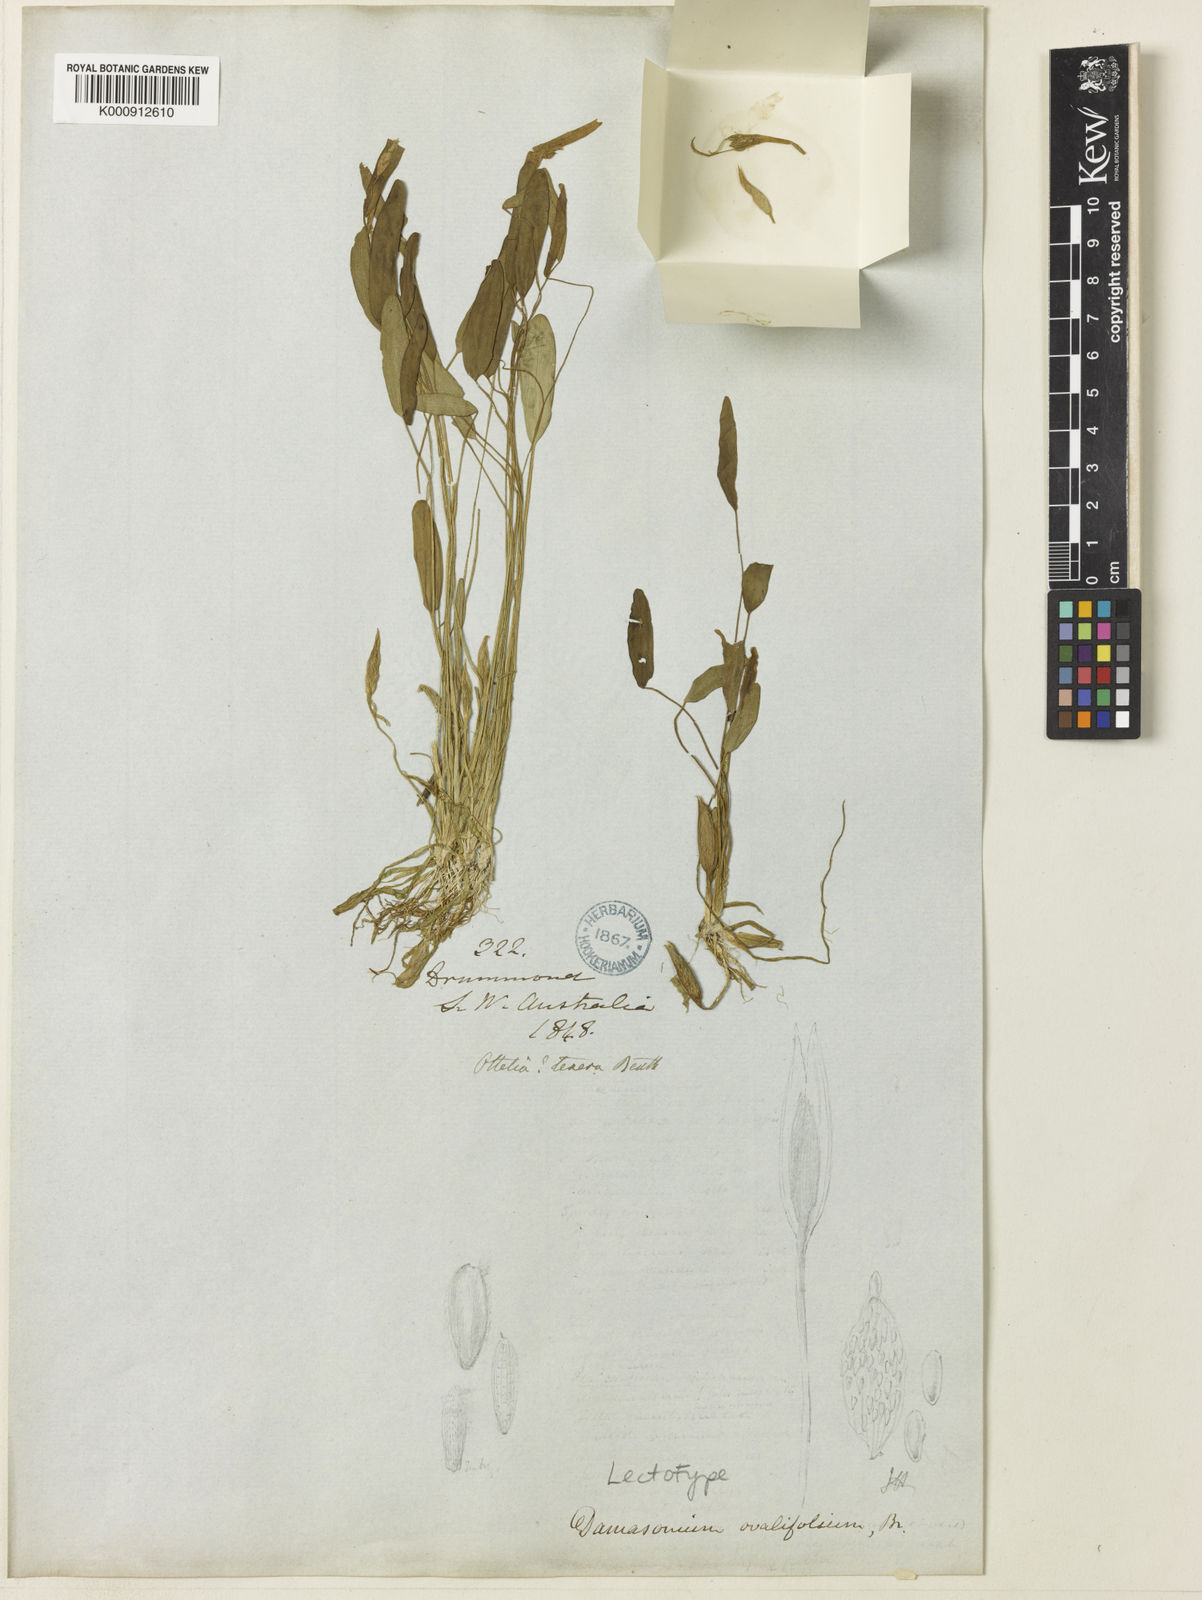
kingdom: Plantae
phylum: Tracheophyta
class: Liliopsida
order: Alismatales
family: Hydrocharitaceae
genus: Ottelia
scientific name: Ottelia ovalifolia
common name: Swamp-lily
